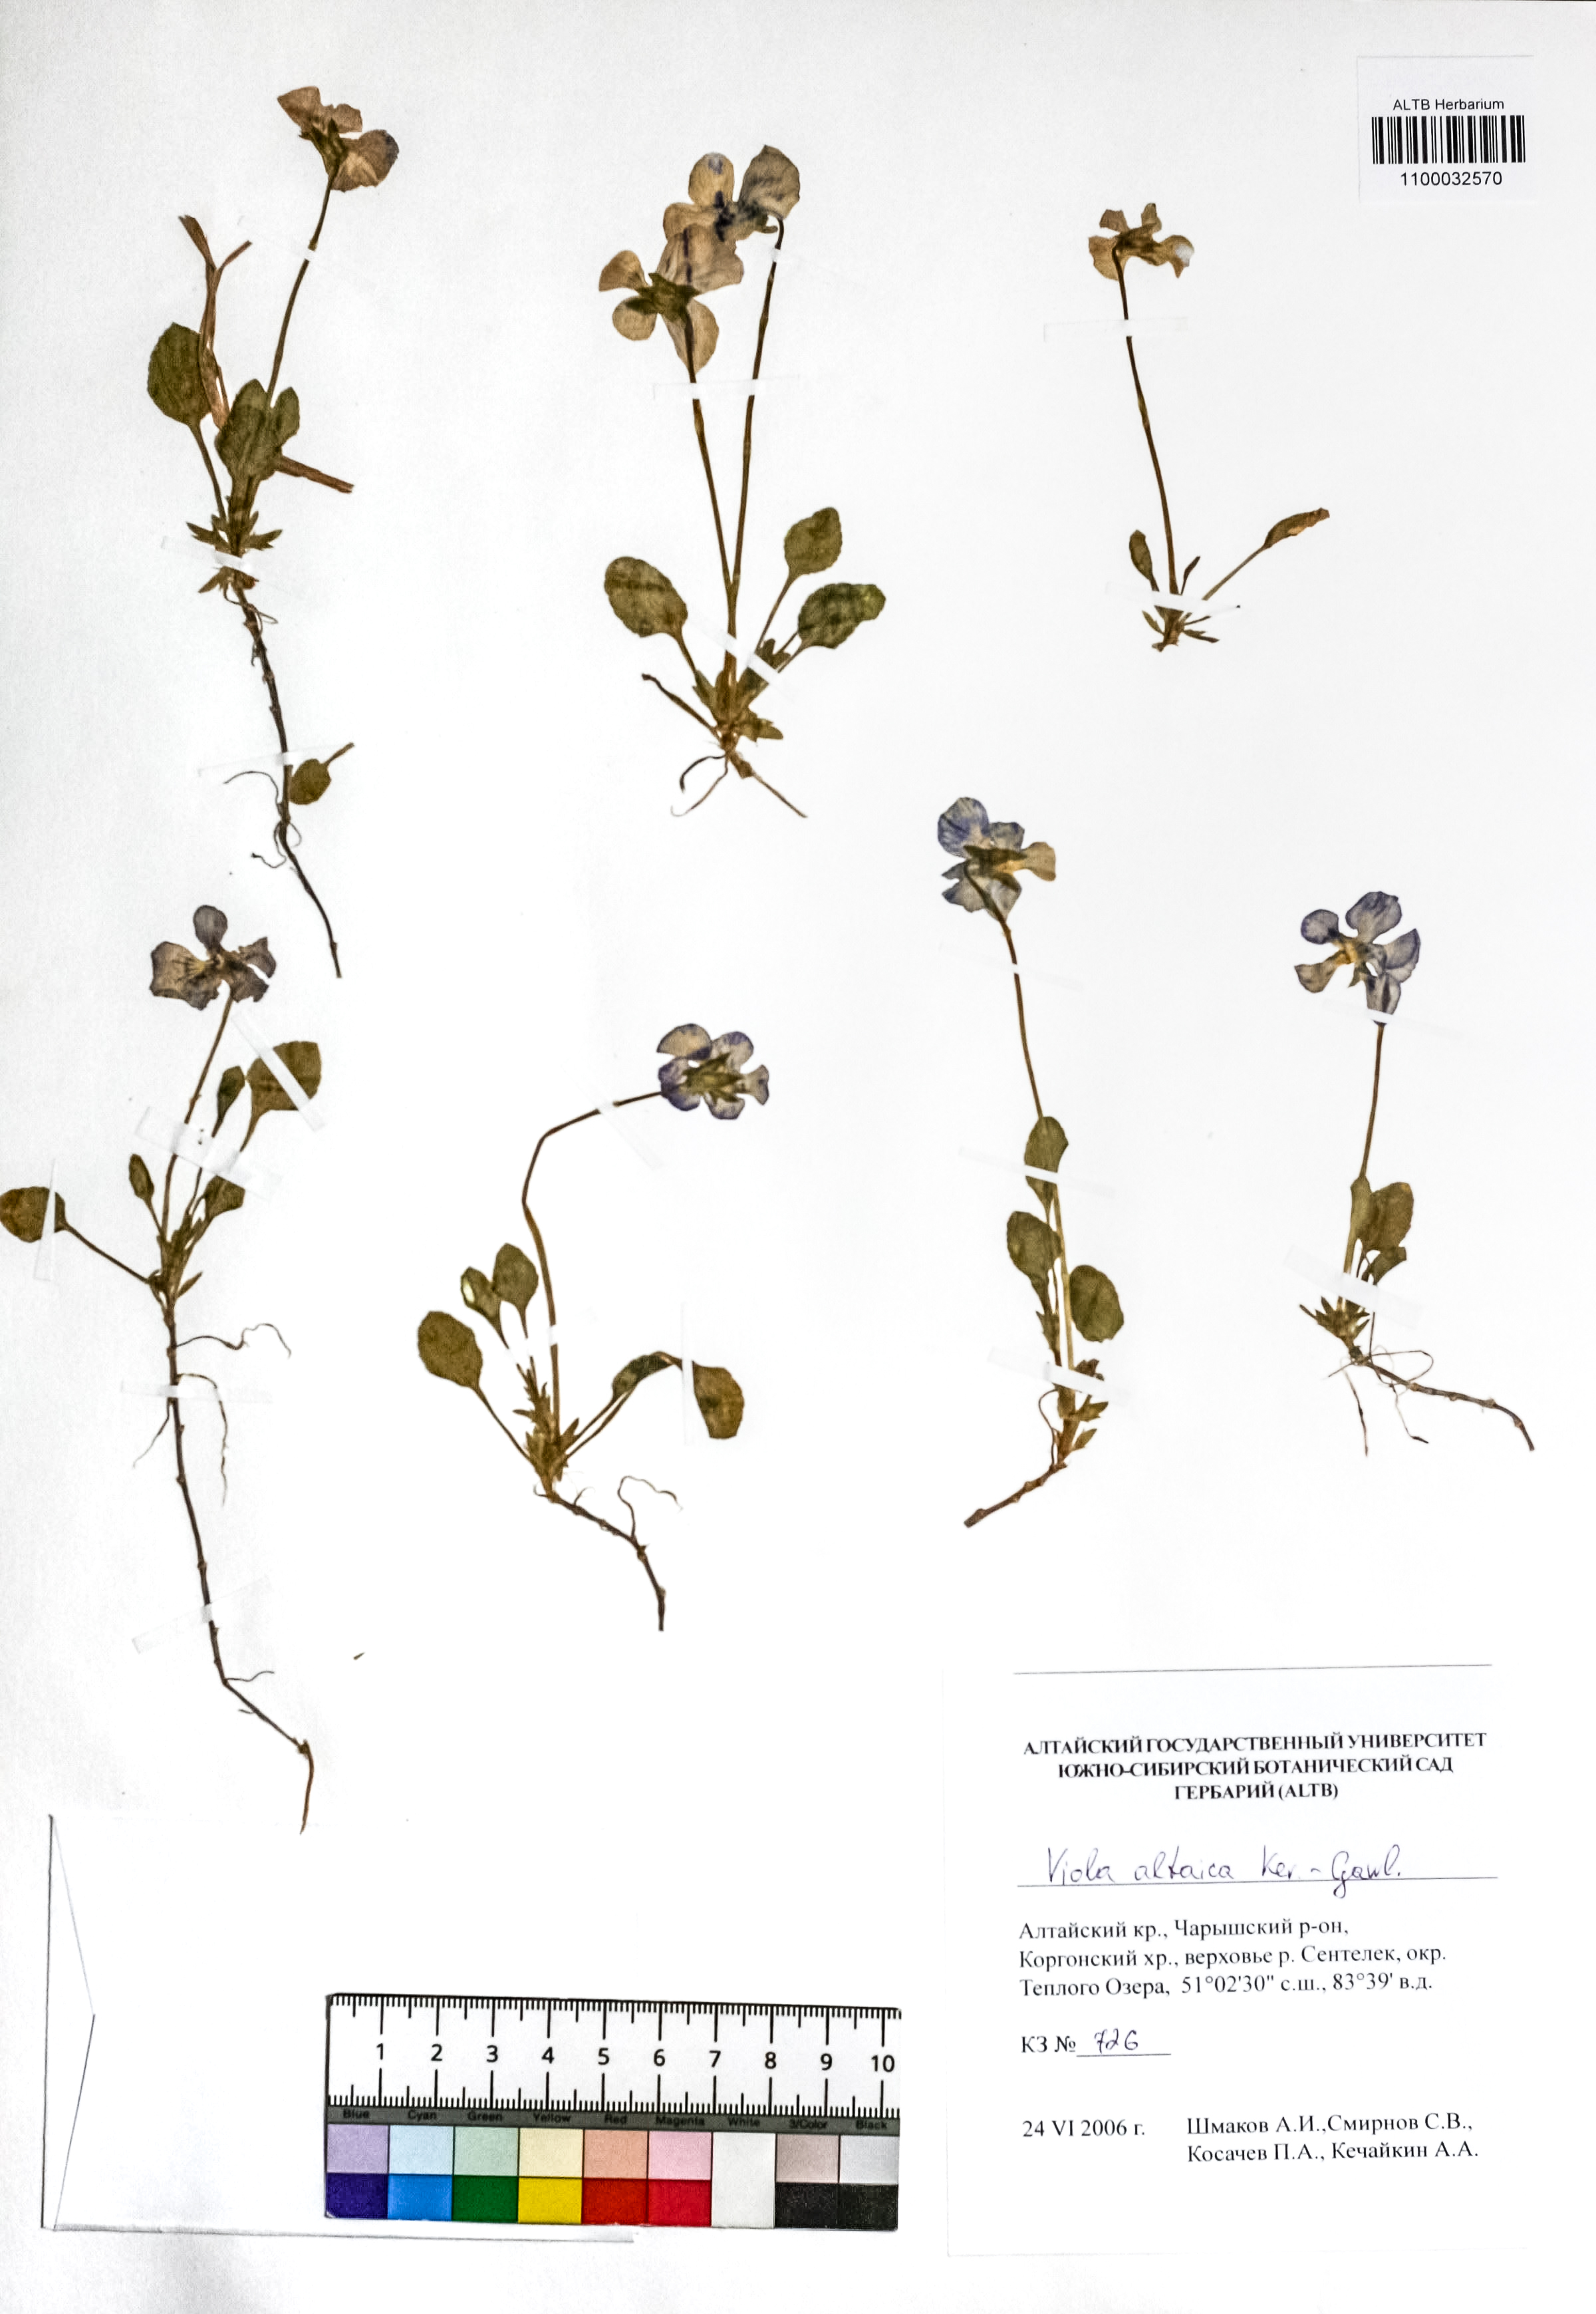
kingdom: Plantae
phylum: Tracheophyta
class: Magnoliopsida
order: Malpighiales
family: Violaceae
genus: Viola
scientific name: Viola altaica
